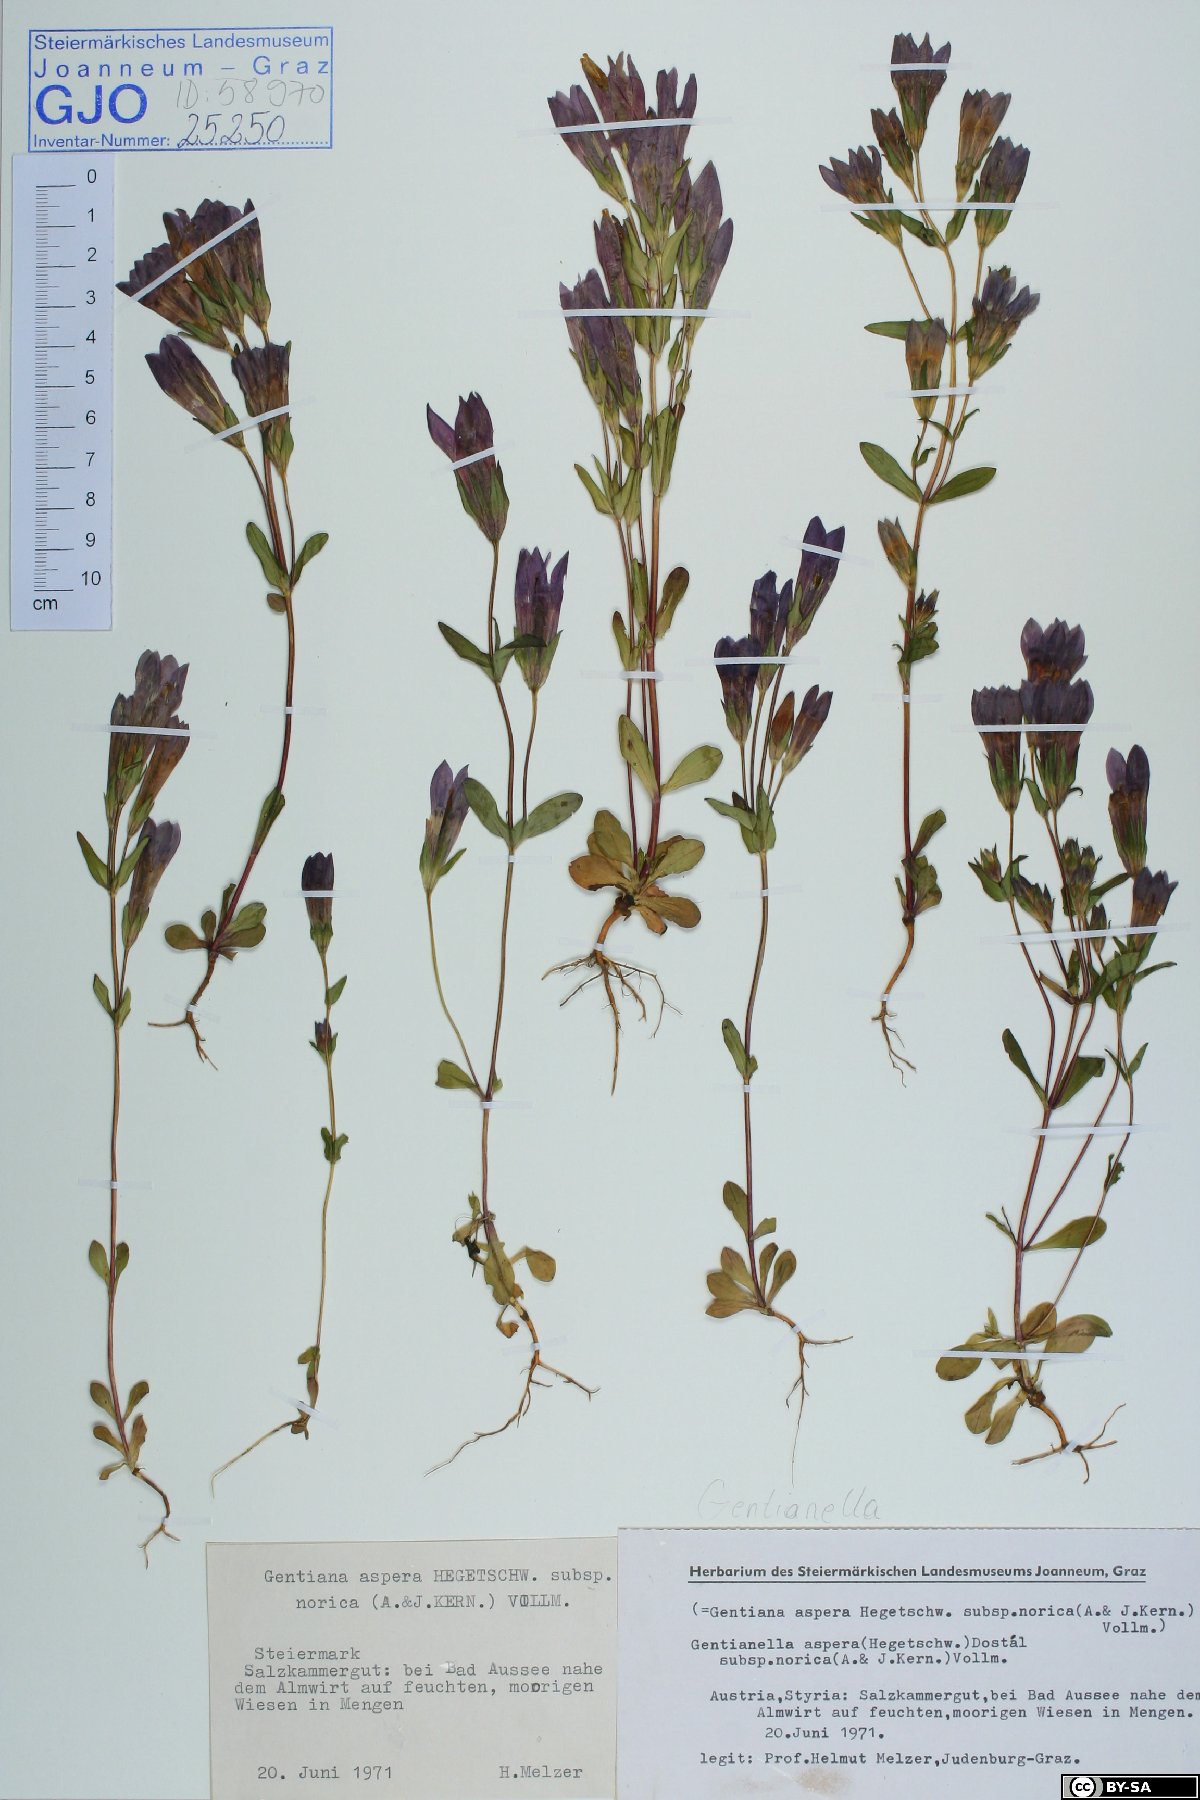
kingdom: Plantae
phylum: Tracheophyta
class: Magnoliopsida
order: Gentianales
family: Gentianaceae
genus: Gentianella
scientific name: Gentianella obtusifolia
